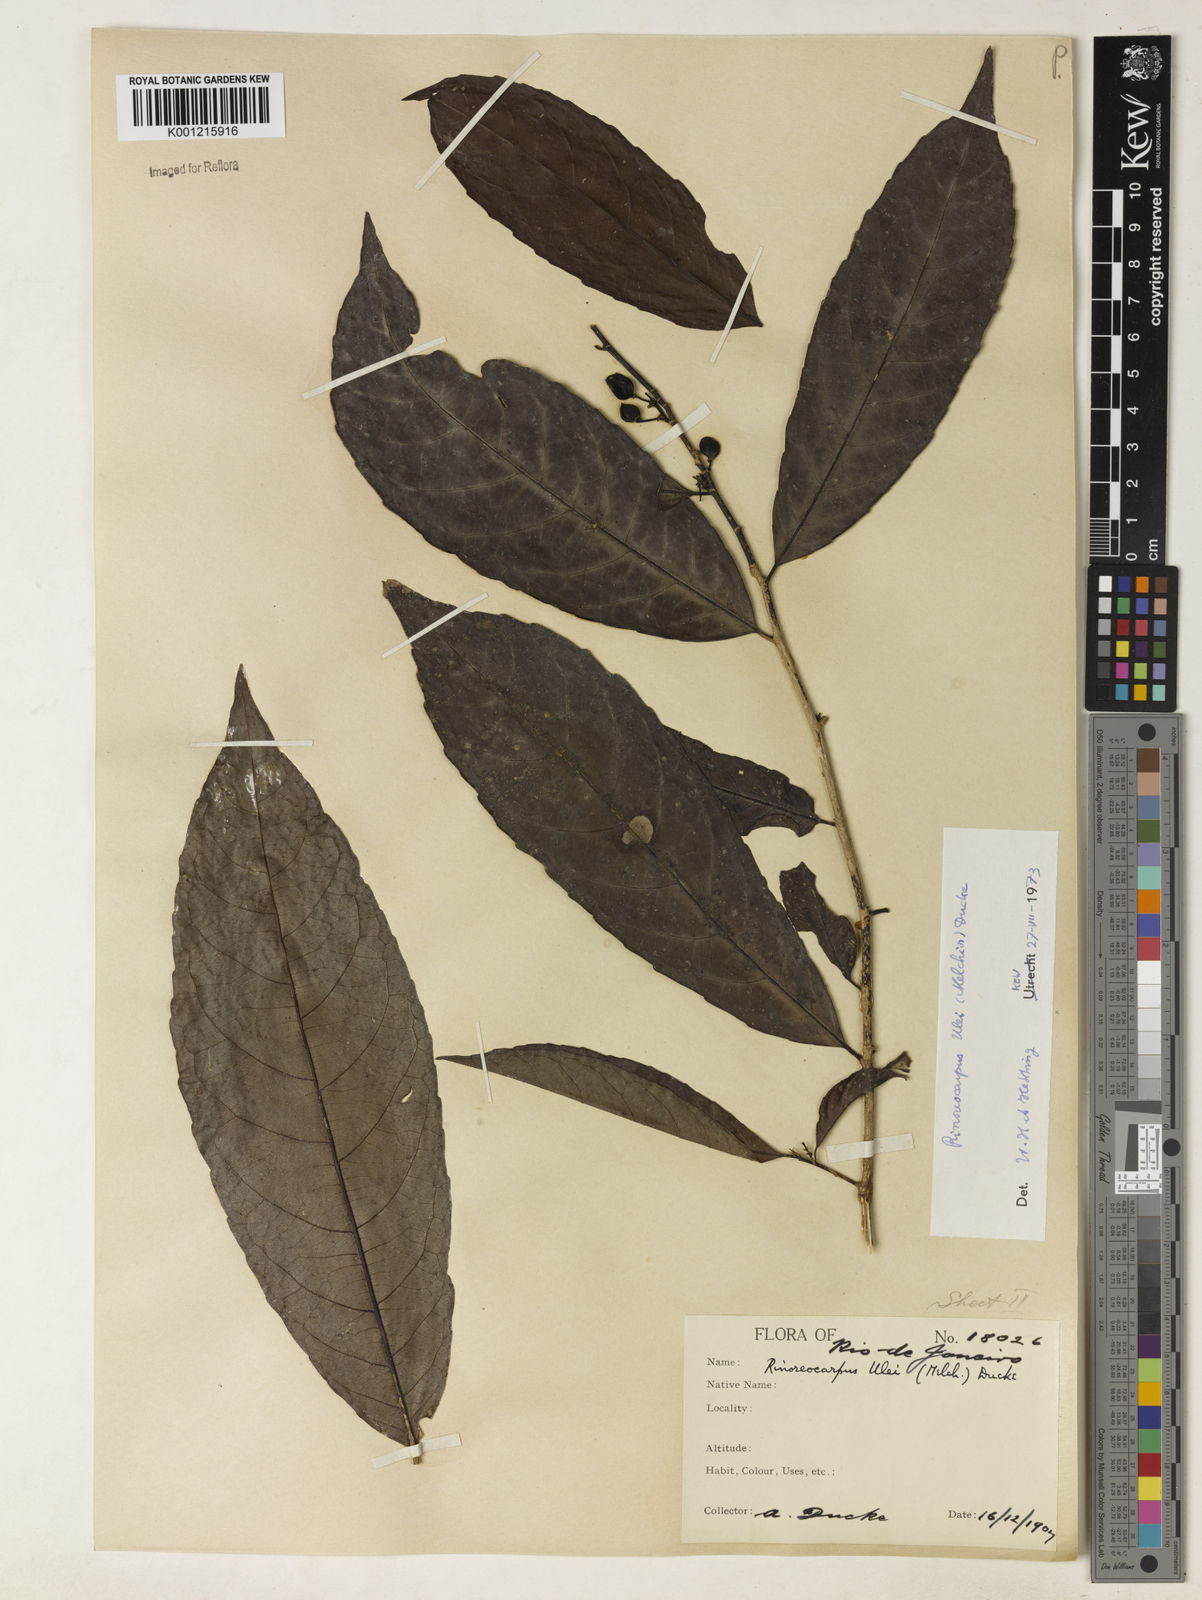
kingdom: Plantae
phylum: Tracheophyta
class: Magnoliopsida
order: Malpighiales
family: Violaceae
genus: Rinorea
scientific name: Rinorea
